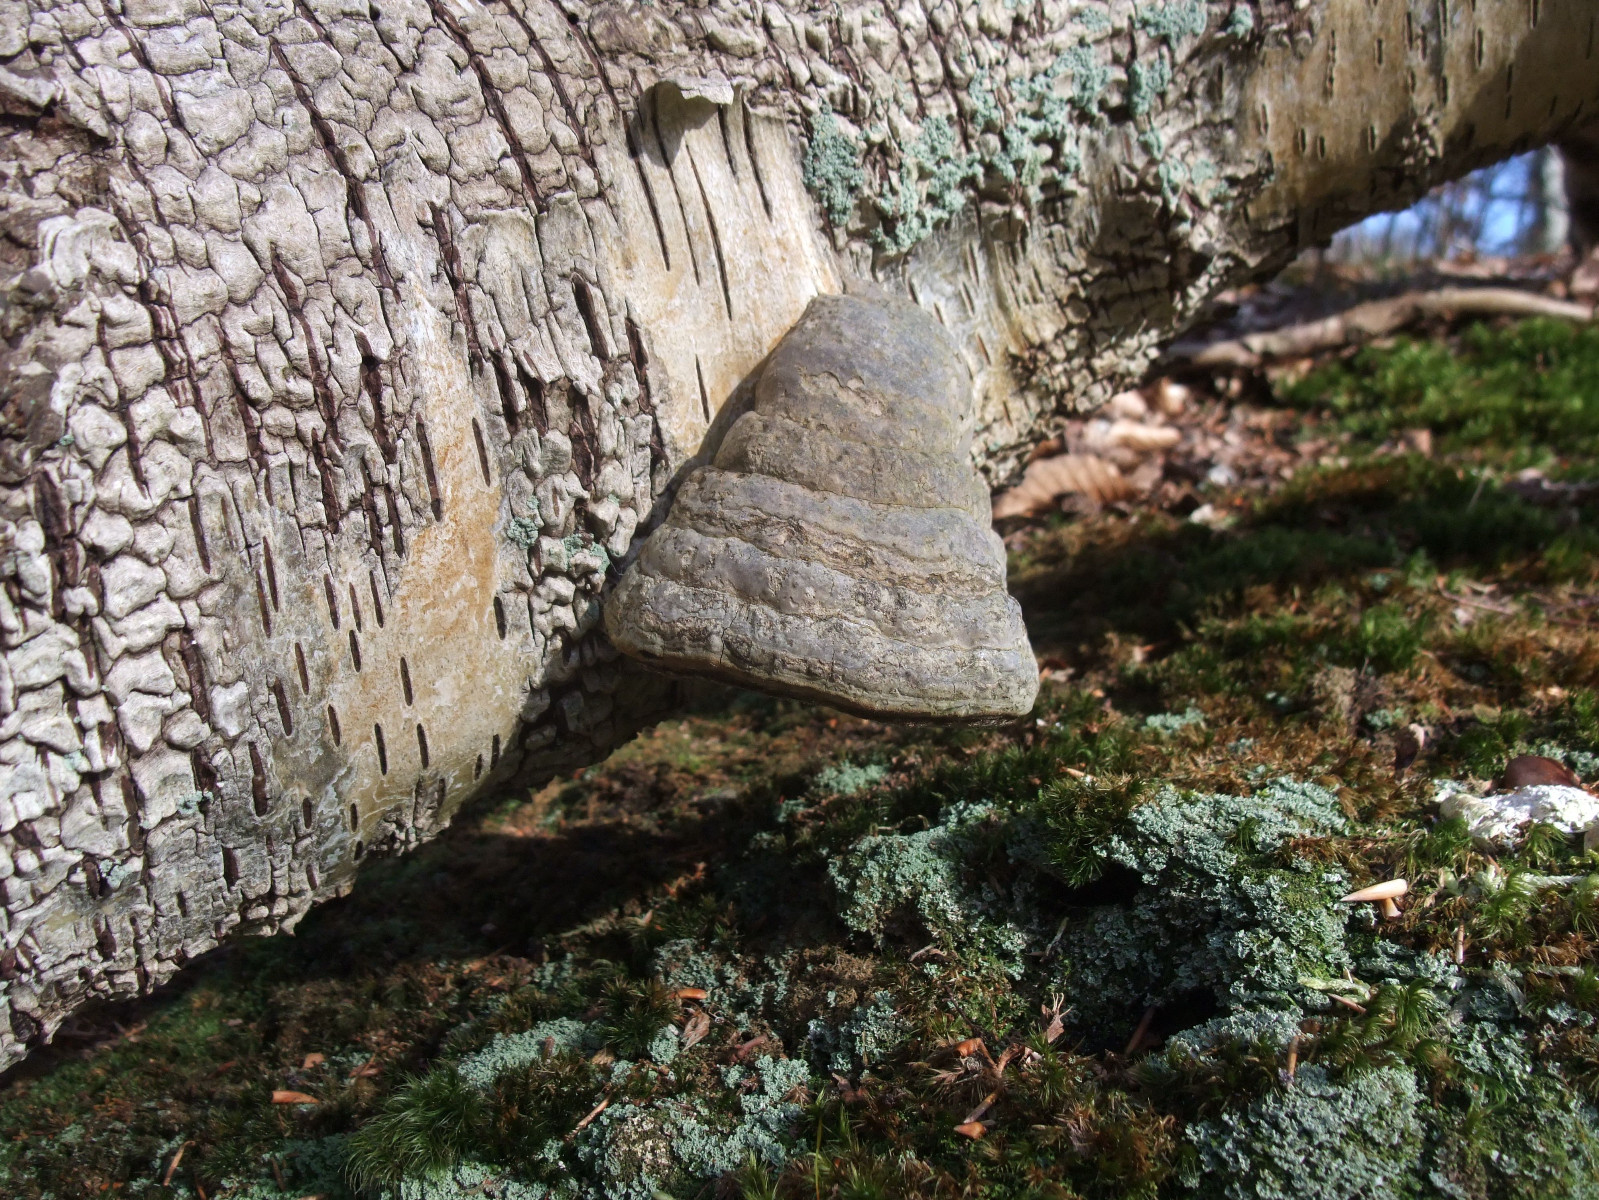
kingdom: Fungi
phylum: Basidiomycota
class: Agaricomycetes
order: Polyporales
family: Polyporaceae
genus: Fomes
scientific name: Fomes fomentarius
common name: tøndersvamp
